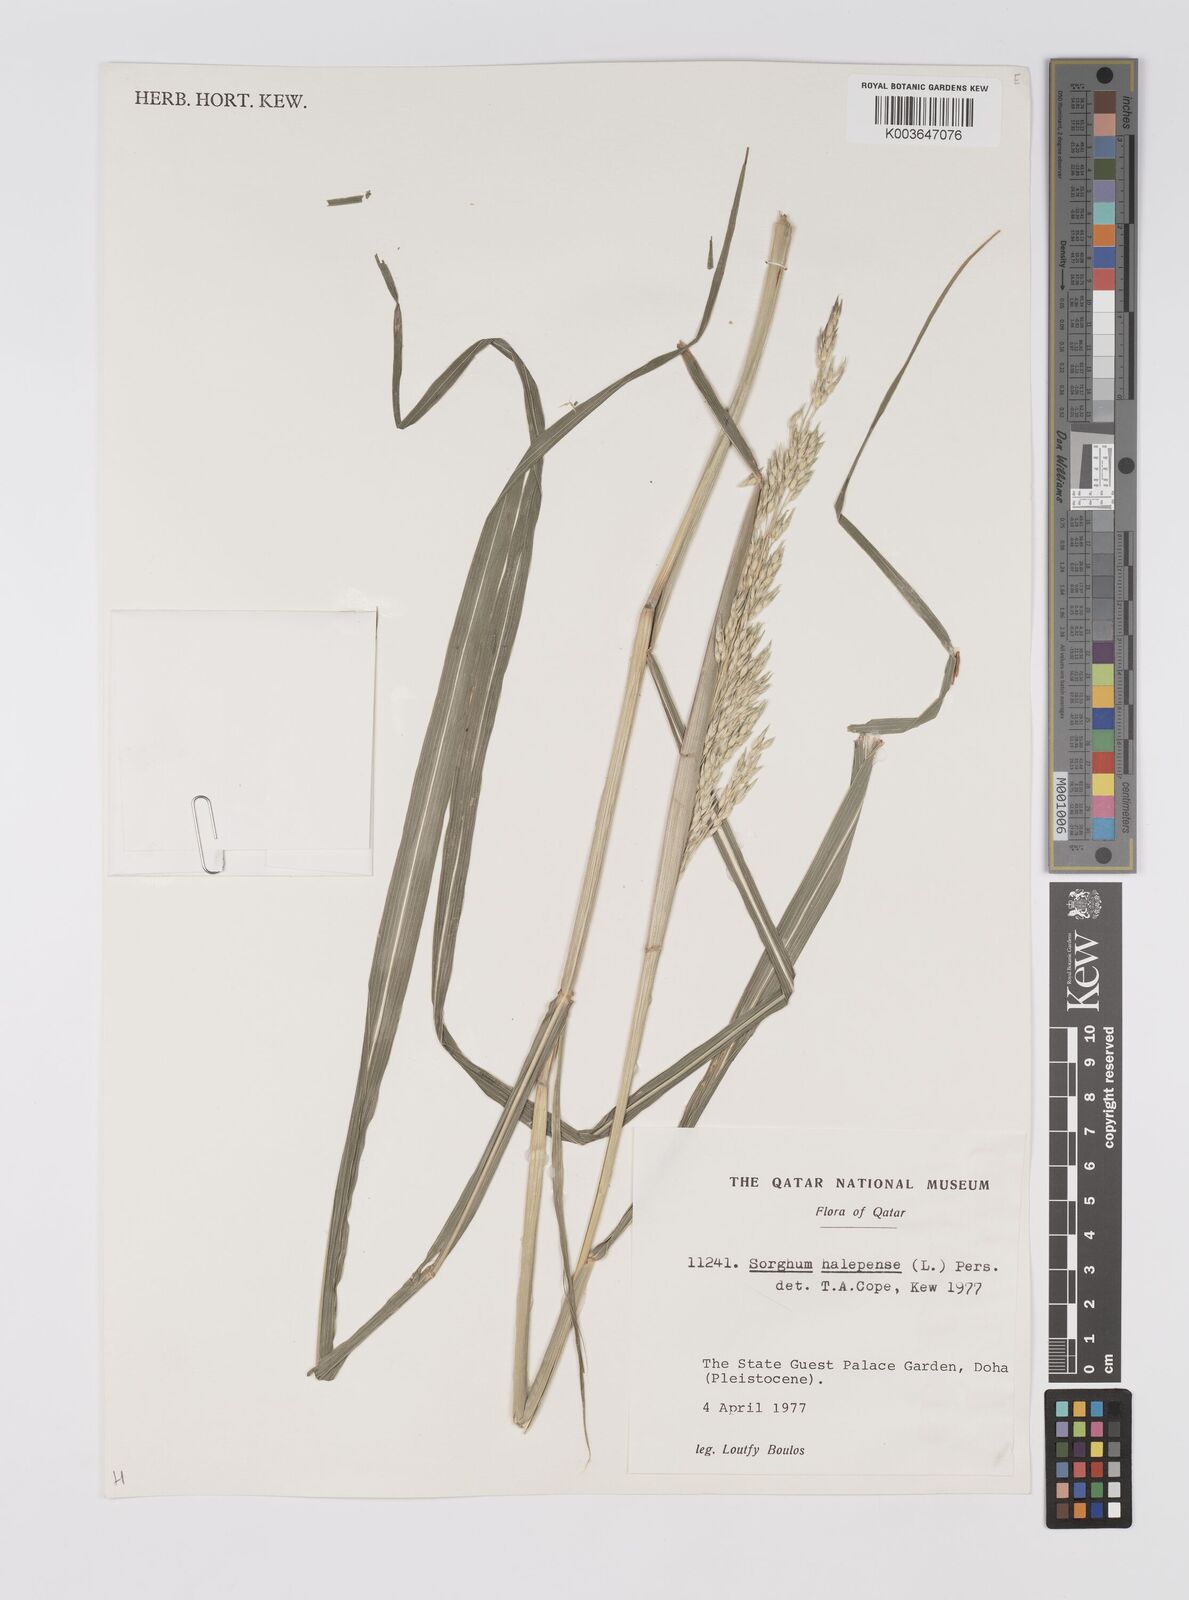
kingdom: Plantae
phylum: Tracheophyta
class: Liliopsida
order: Poales
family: Poaceae
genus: Sorghum
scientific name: Sorghum halepense
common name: Johnson-grass
